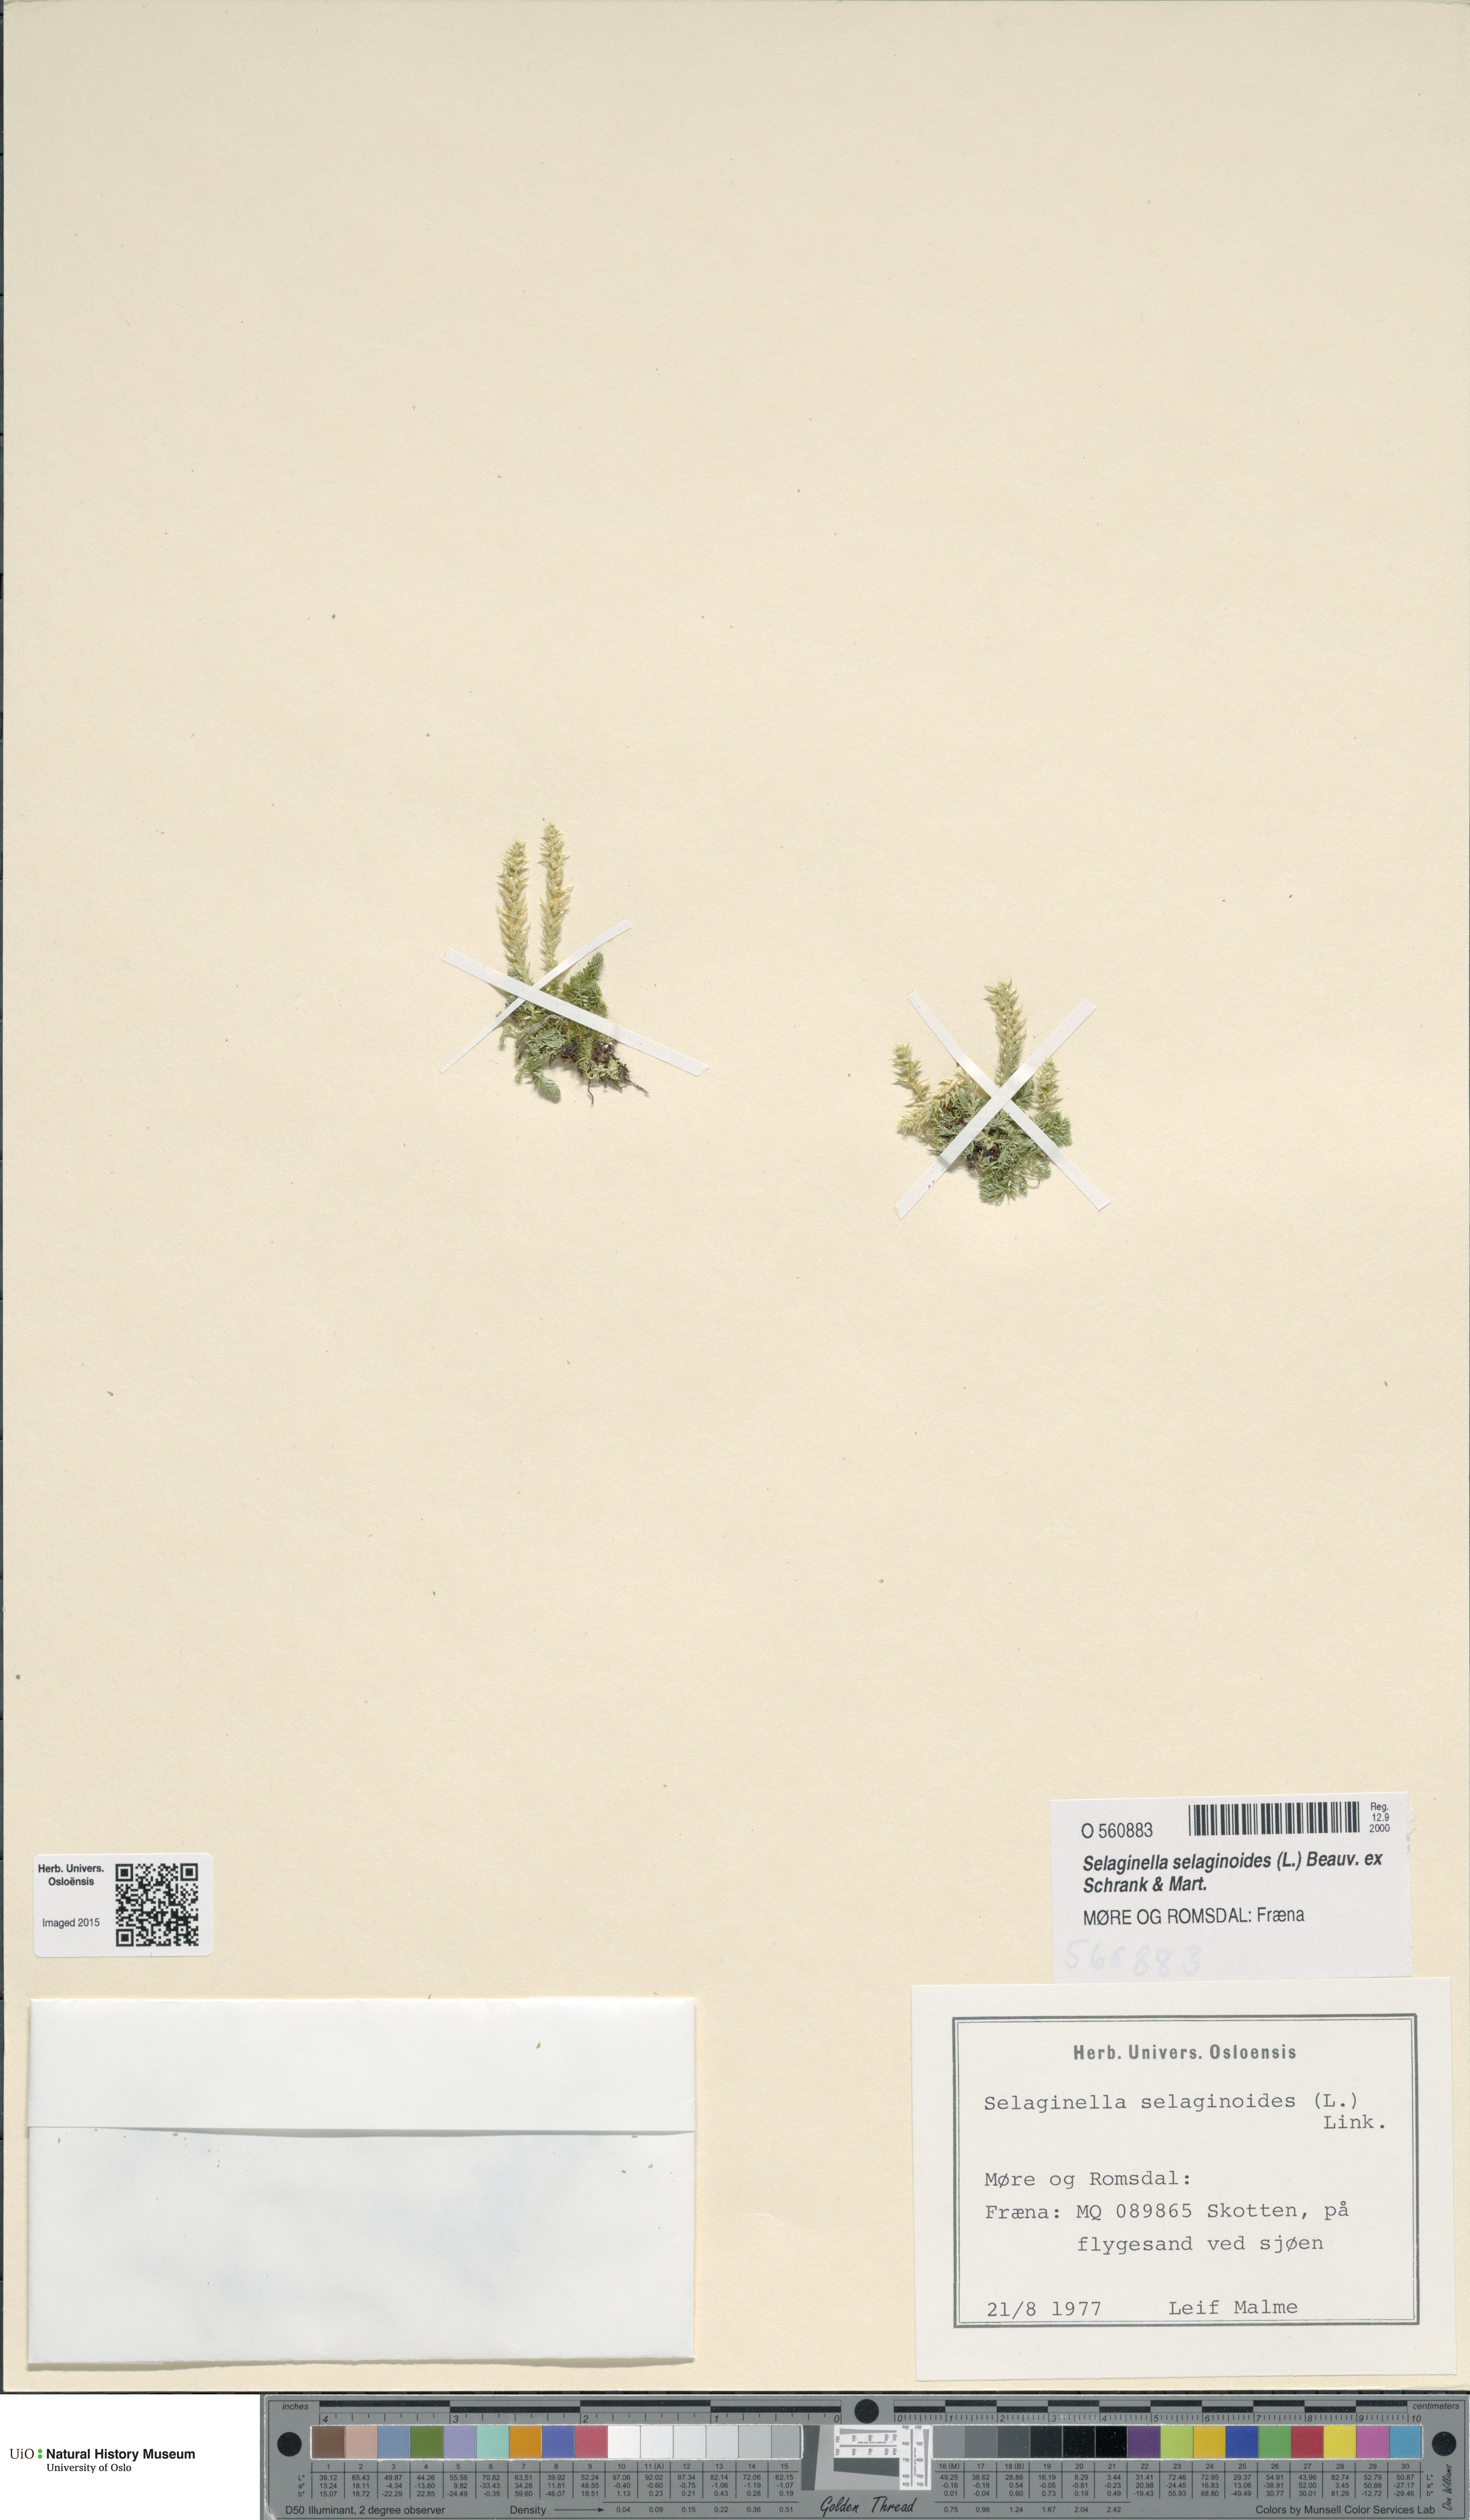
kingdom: Plantae
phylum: Tracheophyta
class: Lycopodiopsida
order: Selaginellales
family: Selaginellaceae
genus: Selaginella
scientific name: Selaginella selaginoides
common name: Prickly mountain-moss
